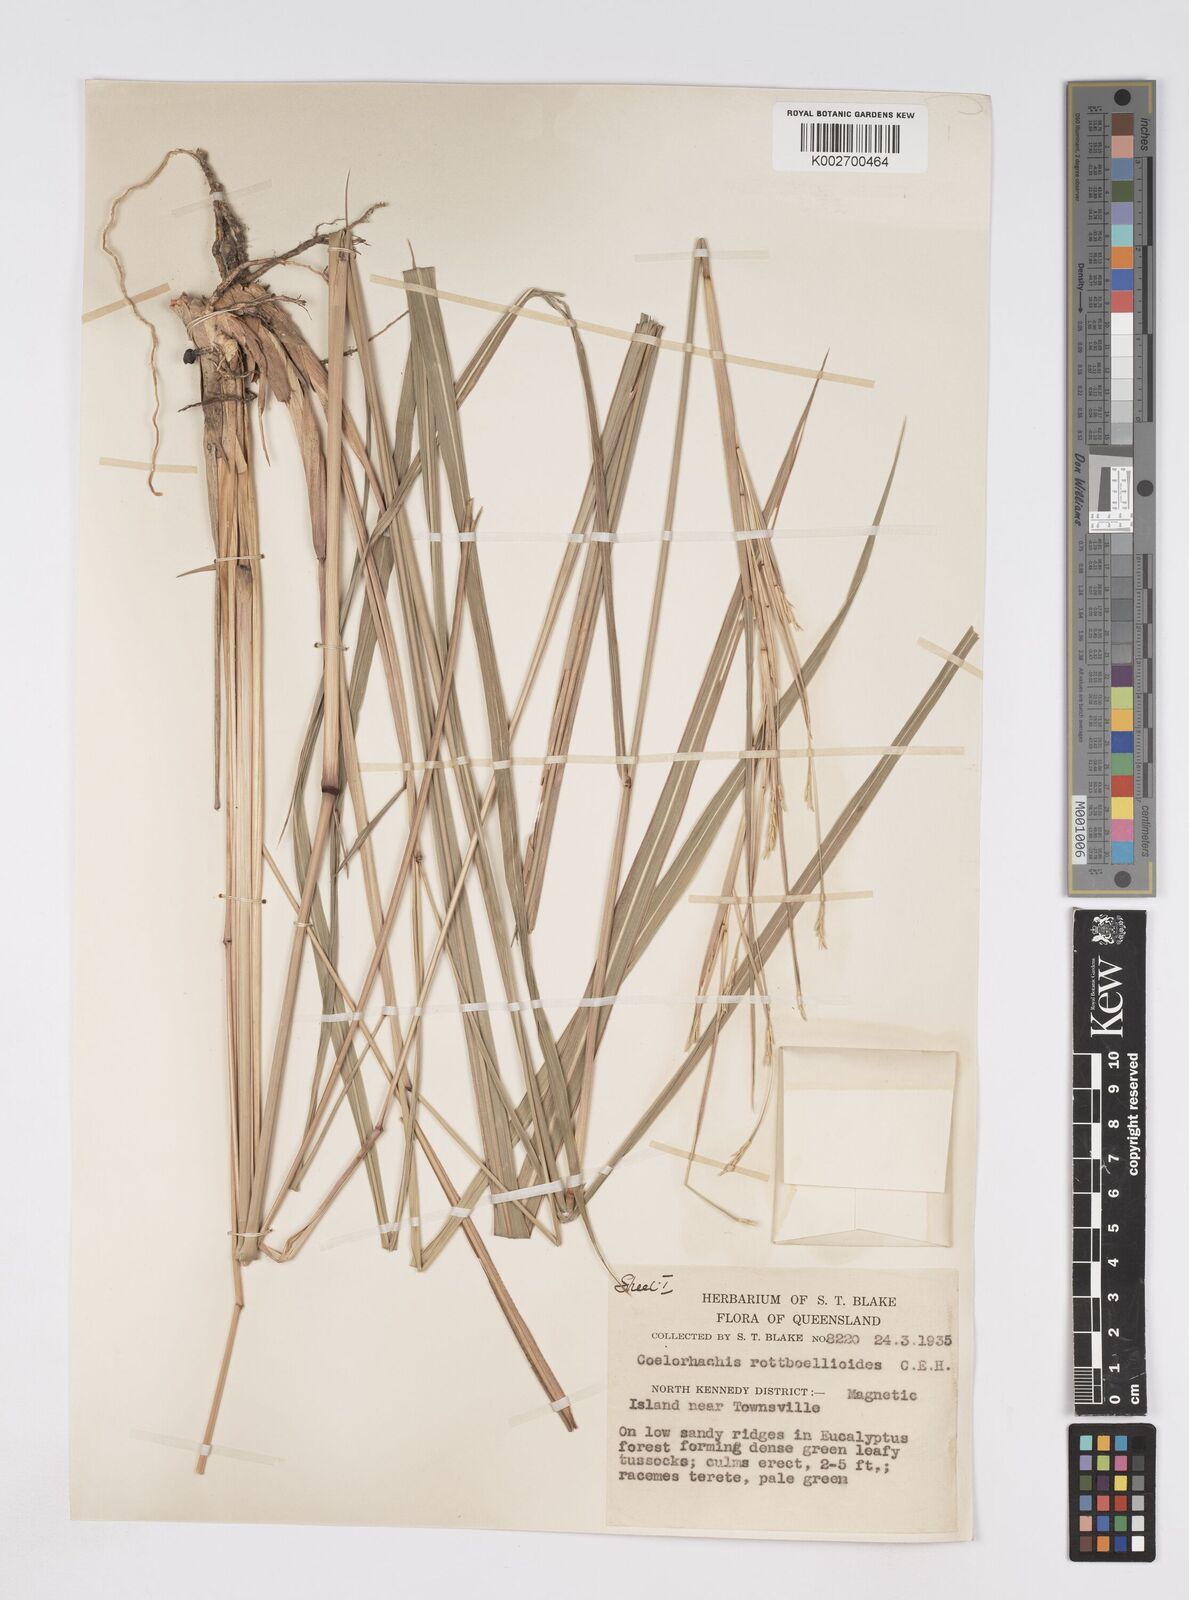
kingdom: Plantae
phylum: Tracheophyta
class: Liliopsida
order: Poales
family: Poaceae
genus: Rottboellia
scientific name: Rottboellia rottboellioides
